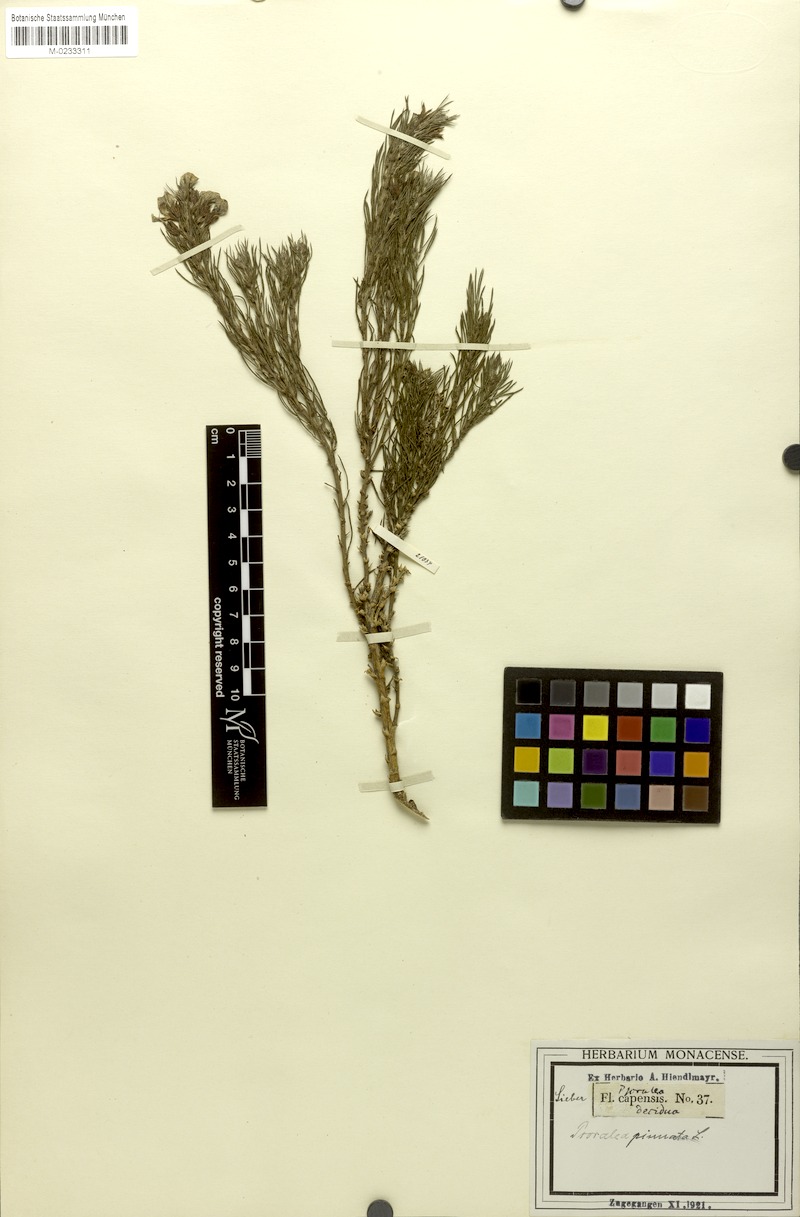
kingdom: Plantae
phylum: Tracheophyta
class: Magnoliopsida
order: Fabales
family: Fabaceae
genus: Psoralea
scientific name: Psoralea pinnata
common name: African scurfpea
